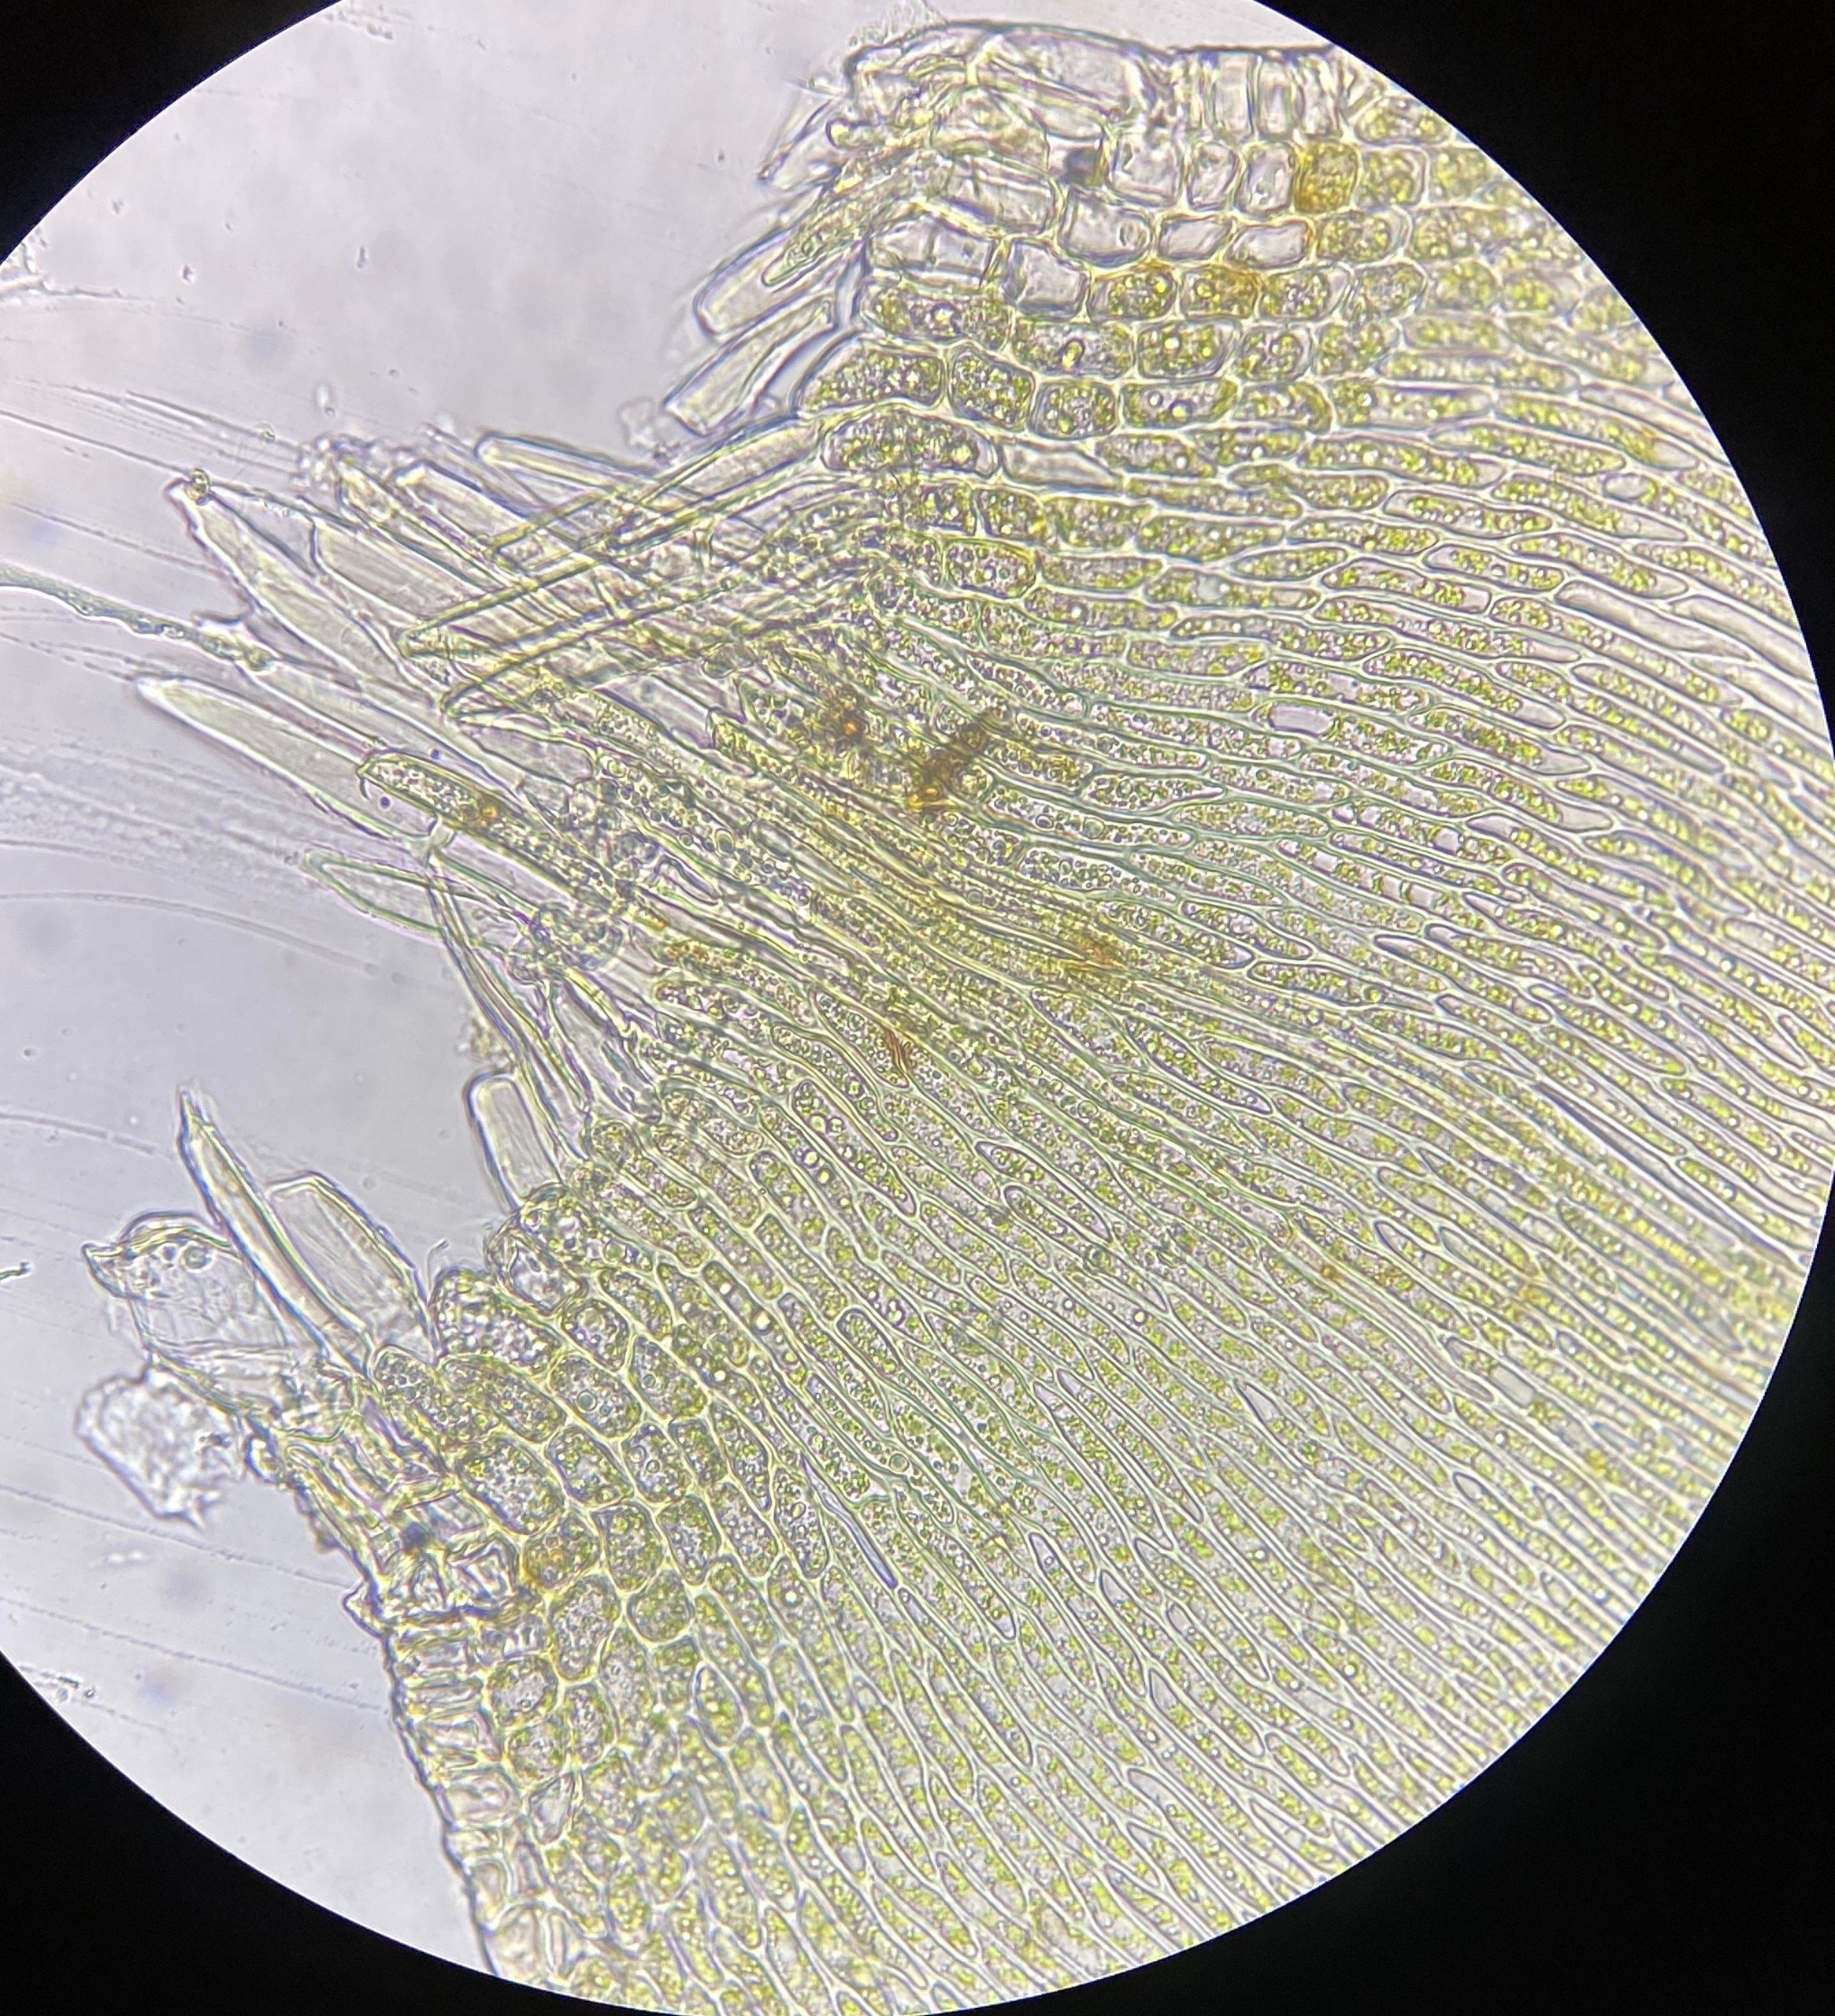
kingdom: Plantae
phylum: Bryophyta
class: Bryopsida
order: Hypnales
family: Pylaisiaceae
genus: Pylaisia
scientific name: Pylaisia polyantha
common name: Mangefrugtet aspemos
